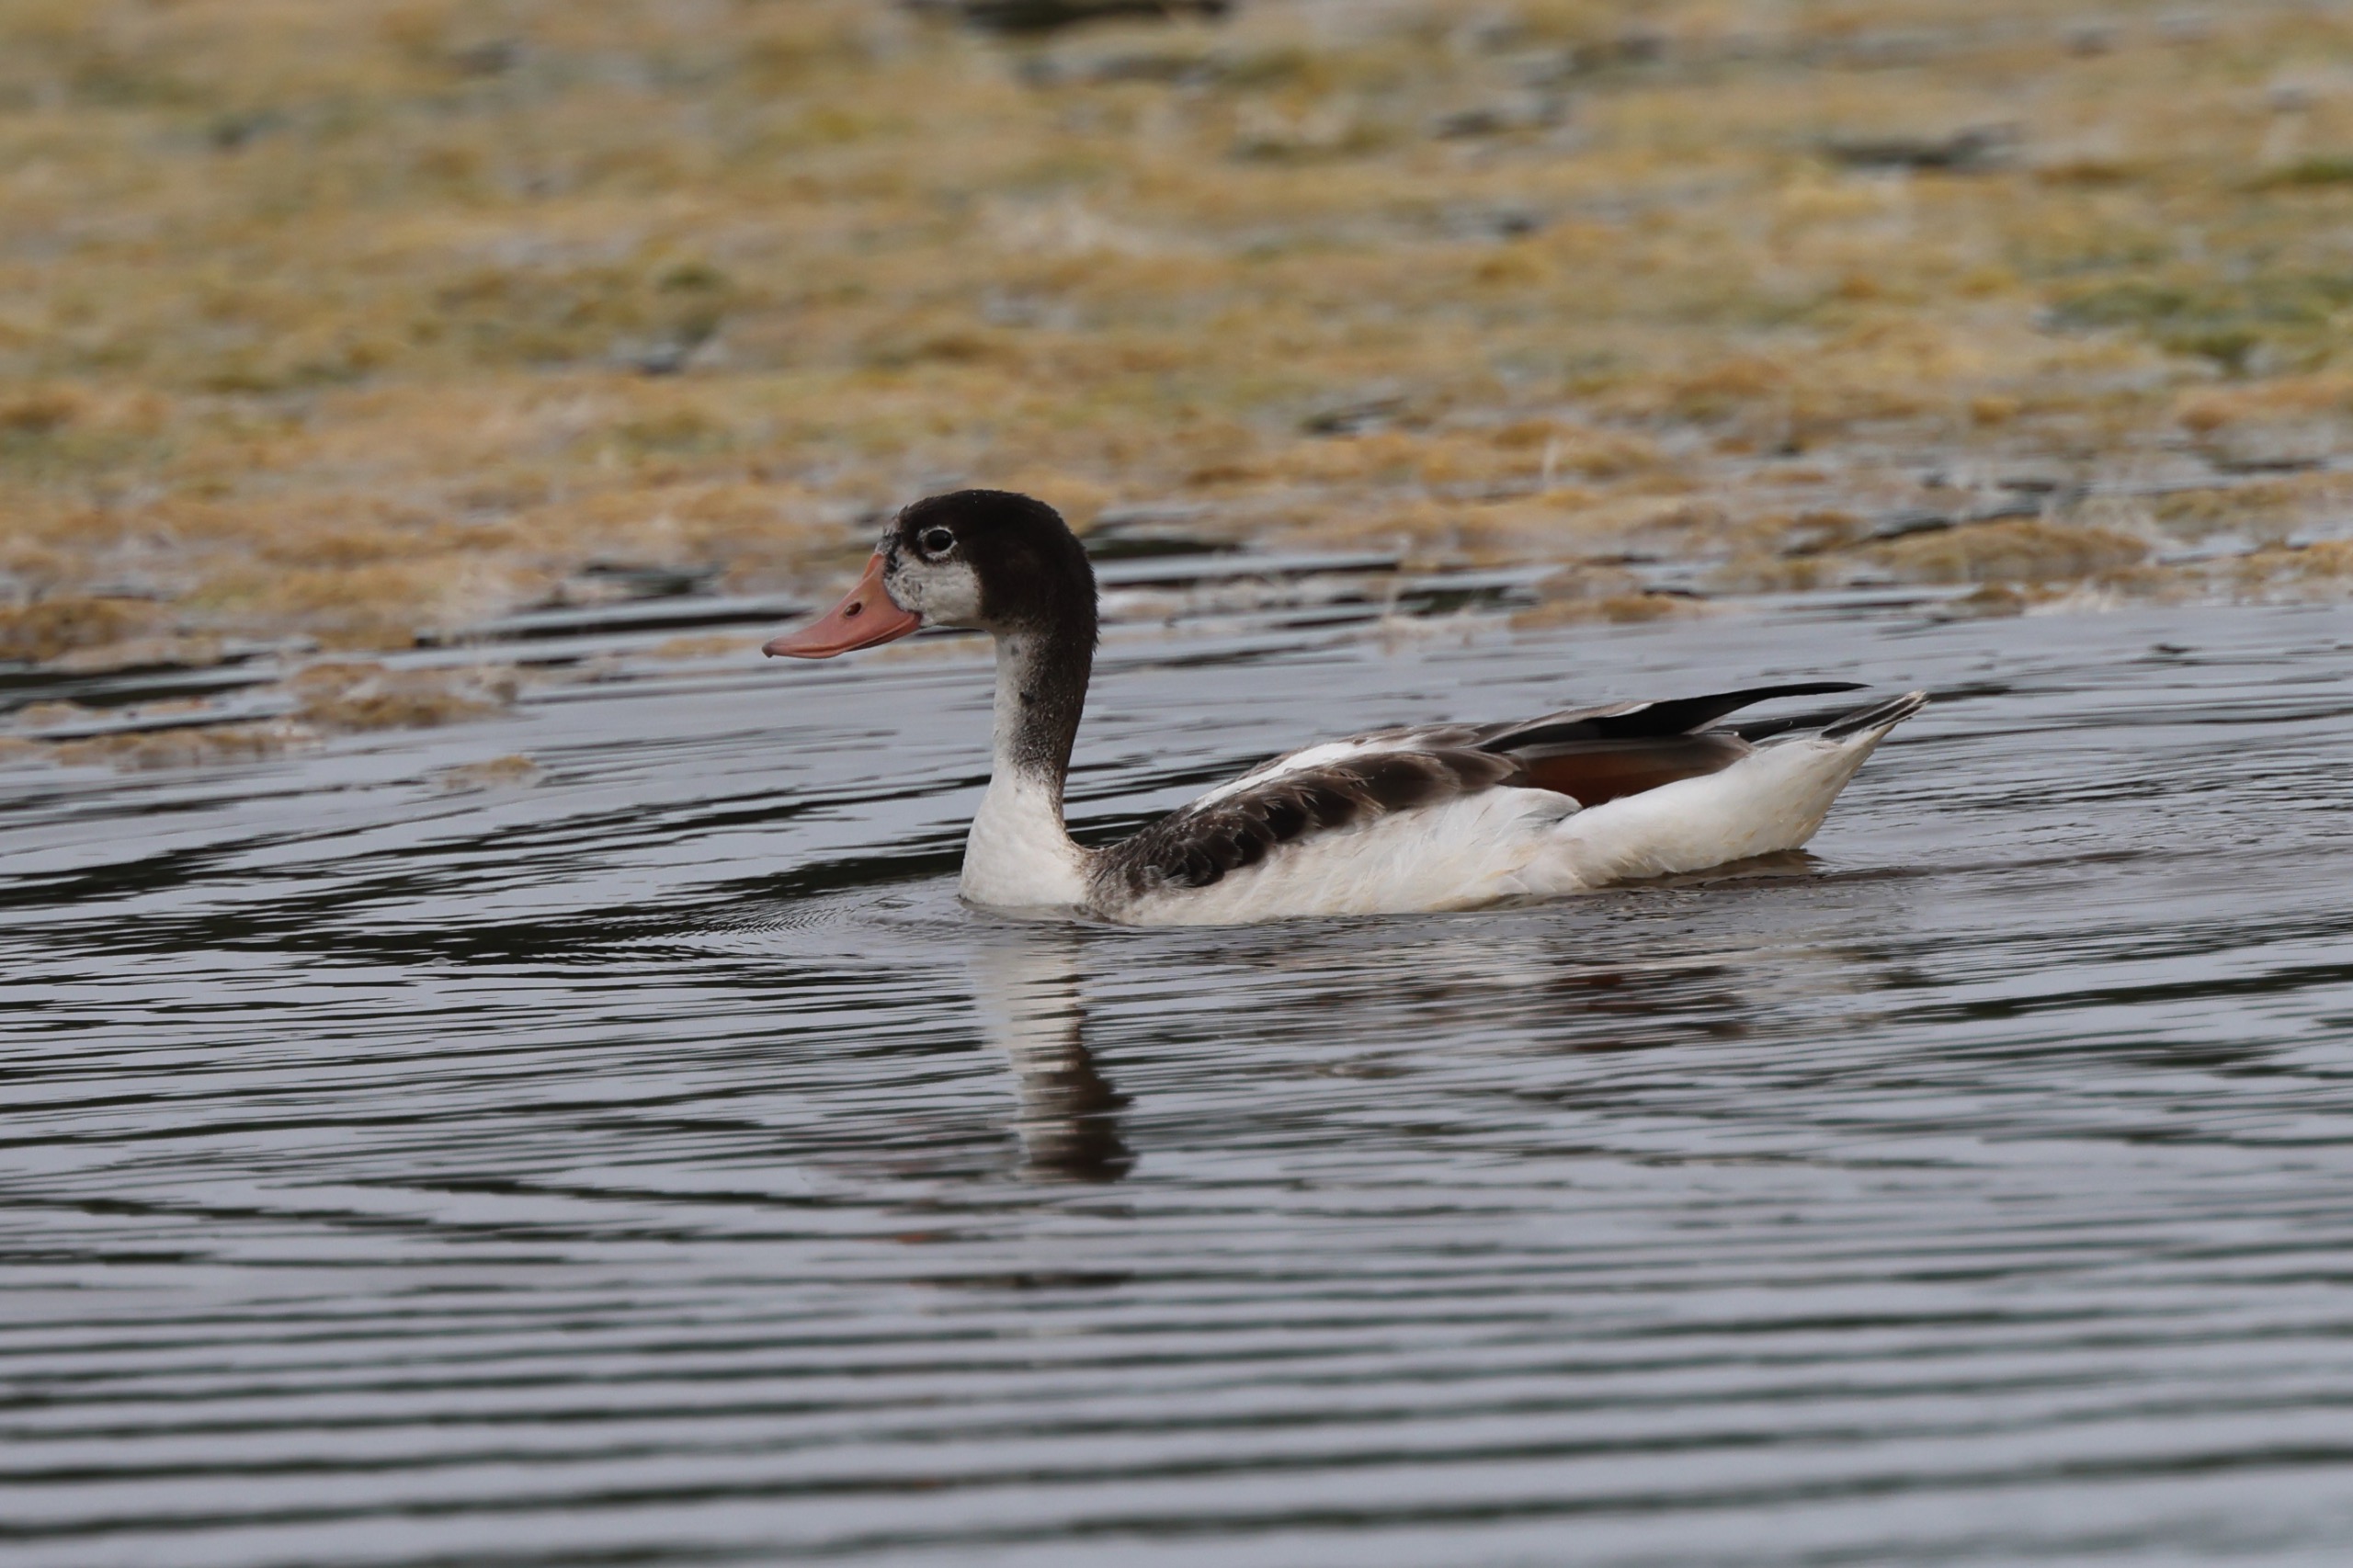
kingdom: Animalia
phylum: Chordata
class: Aves
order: Anseriformes
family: Anatidae
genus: Tadorna
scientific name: Tadorna tadorna
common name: Gravand
